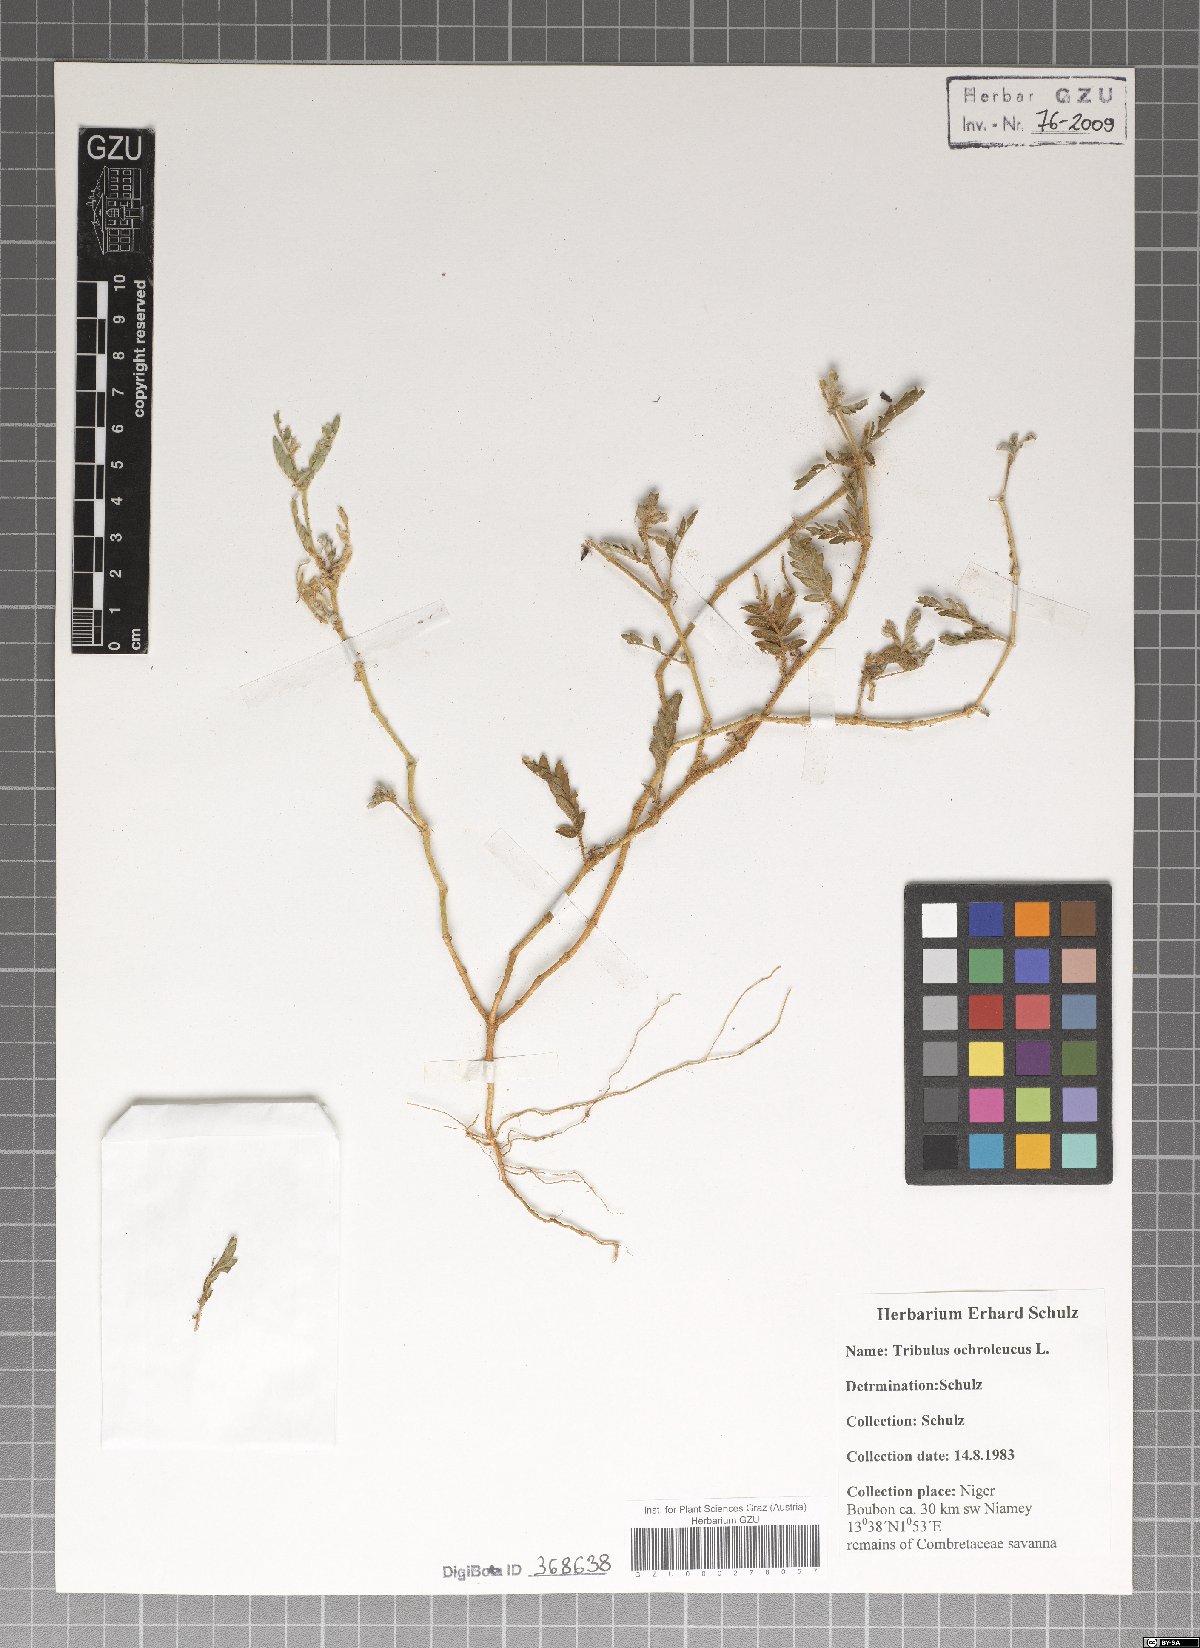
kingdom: Plantae
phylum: Tracheophyta
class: Magnoliopsida
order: Zygophyllales
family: Zygophyllaceae
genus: Tribulus
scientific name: Tribulus ochroleucus
